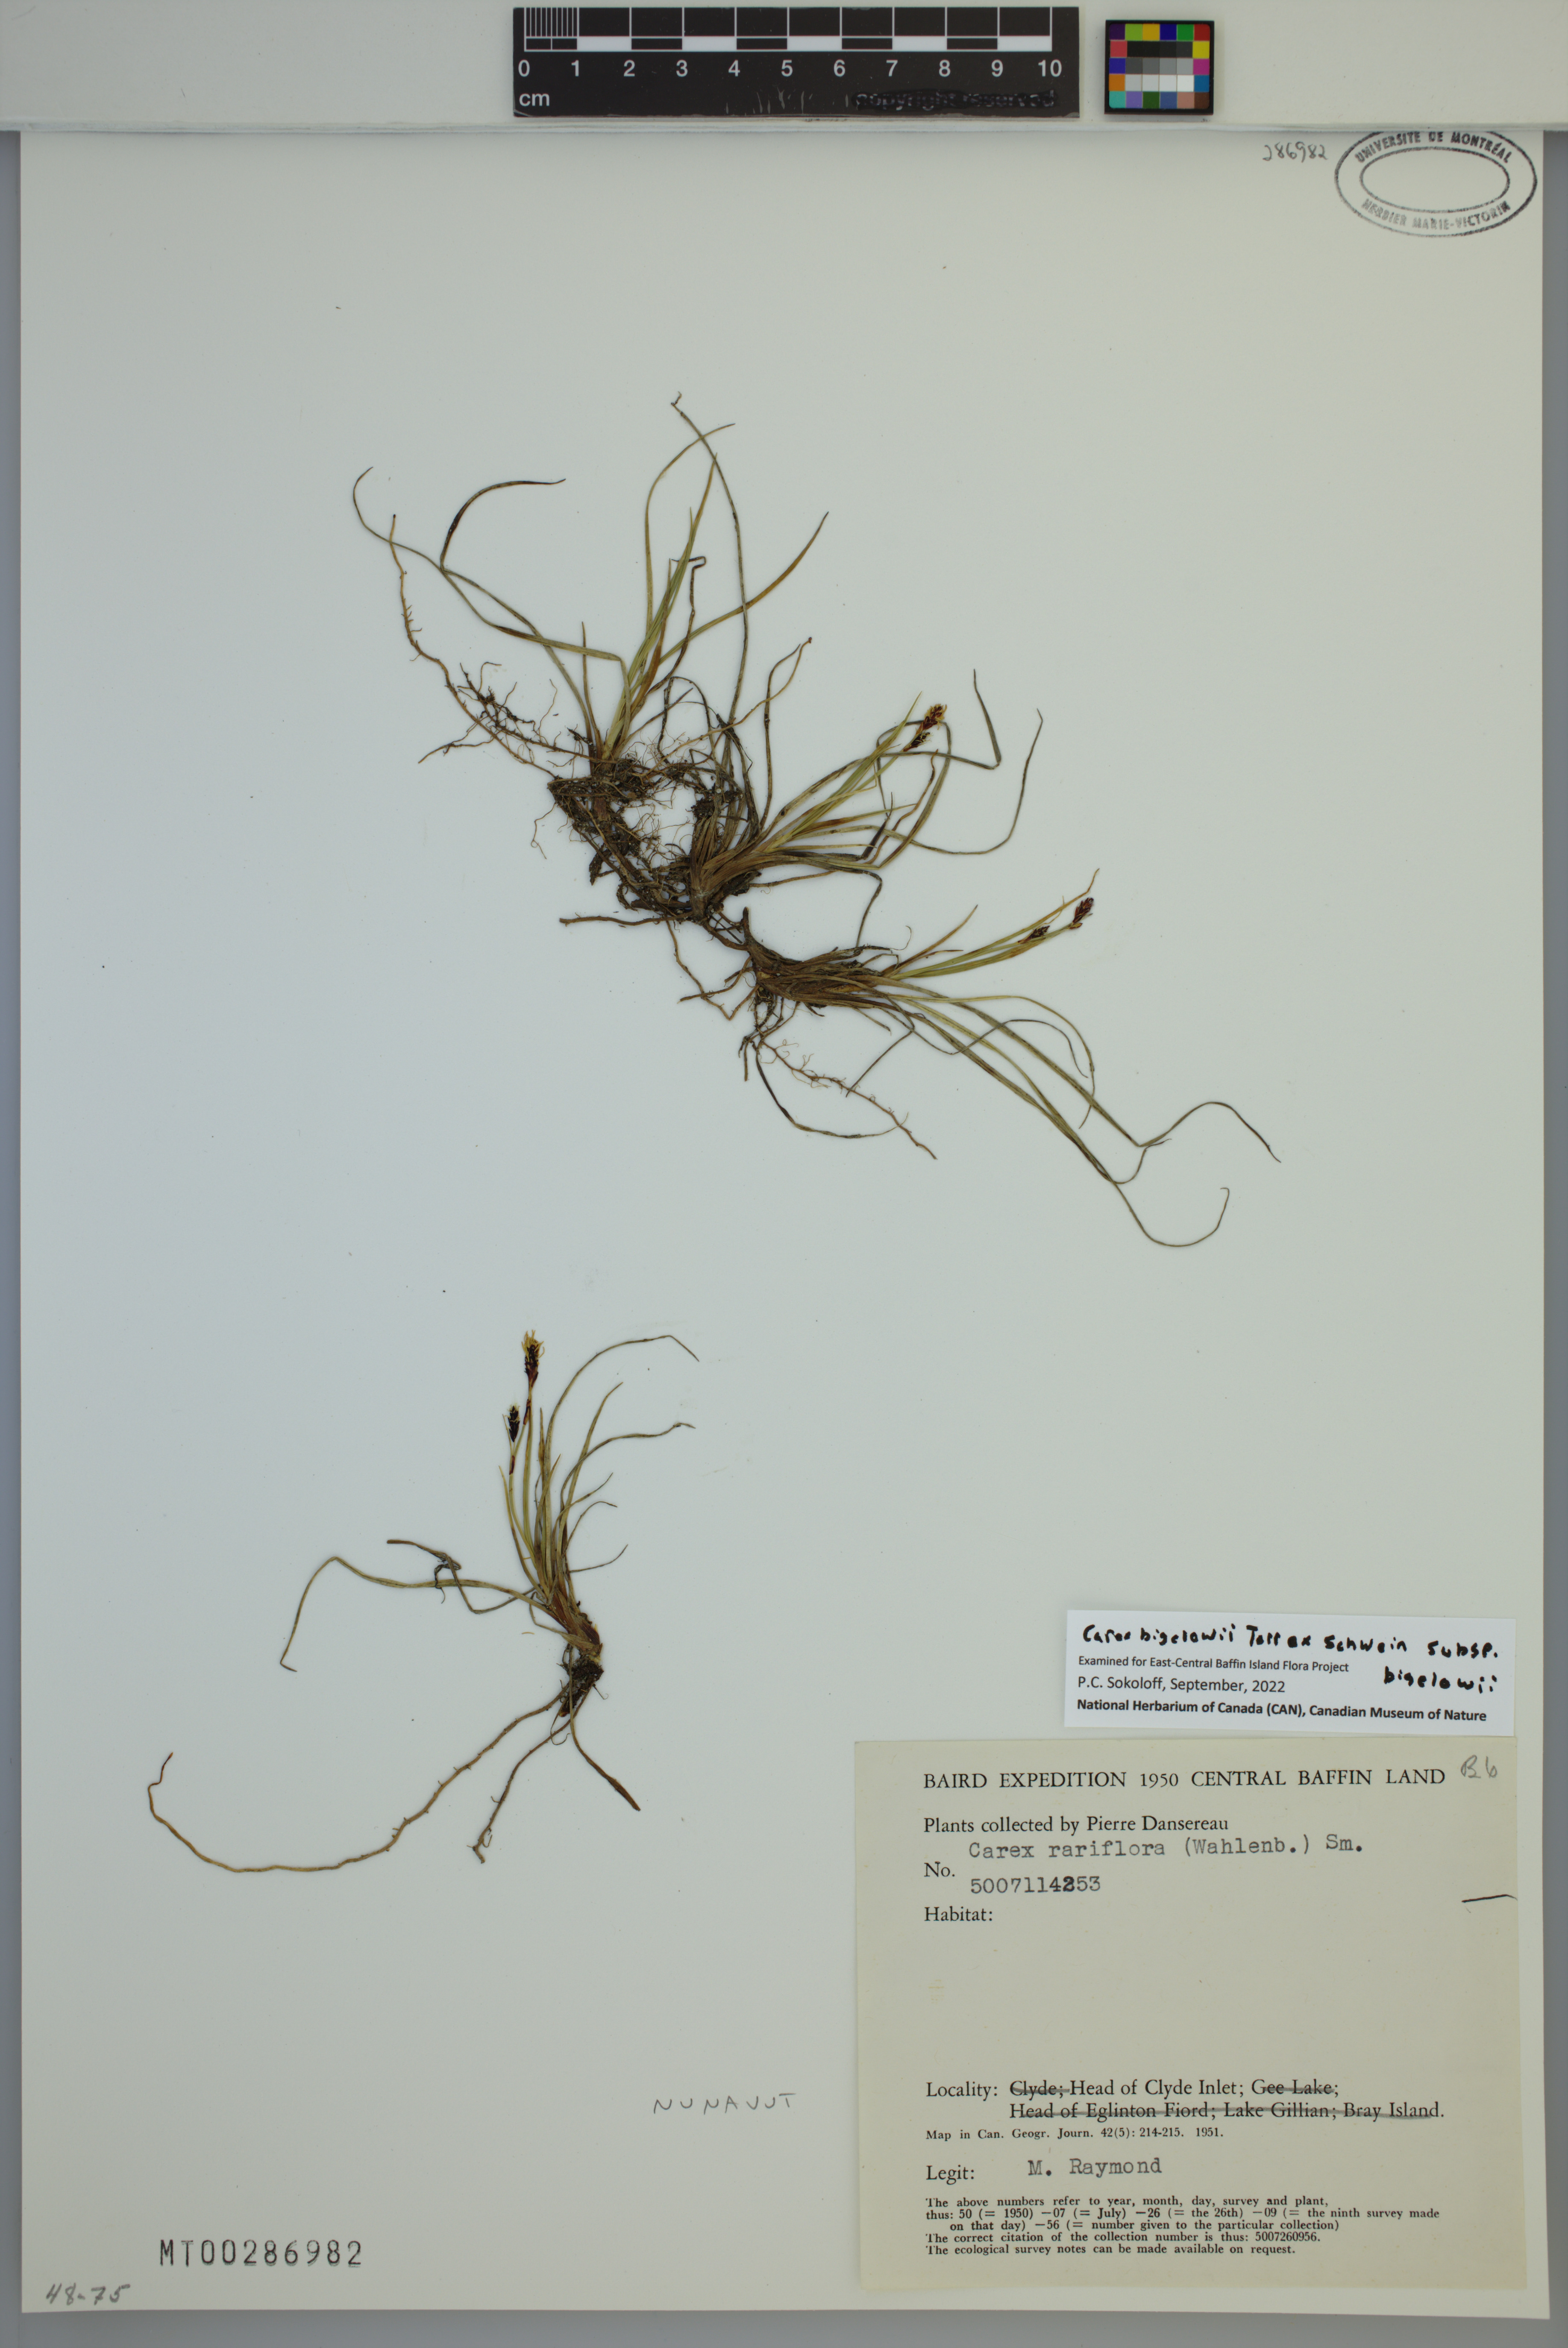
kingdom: Plantae
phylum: Tracheophyta
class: Liliopsida
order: Poales
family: Cyperaceae
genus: Carex
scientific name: Carex bigelowii
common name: Stiff sedge
